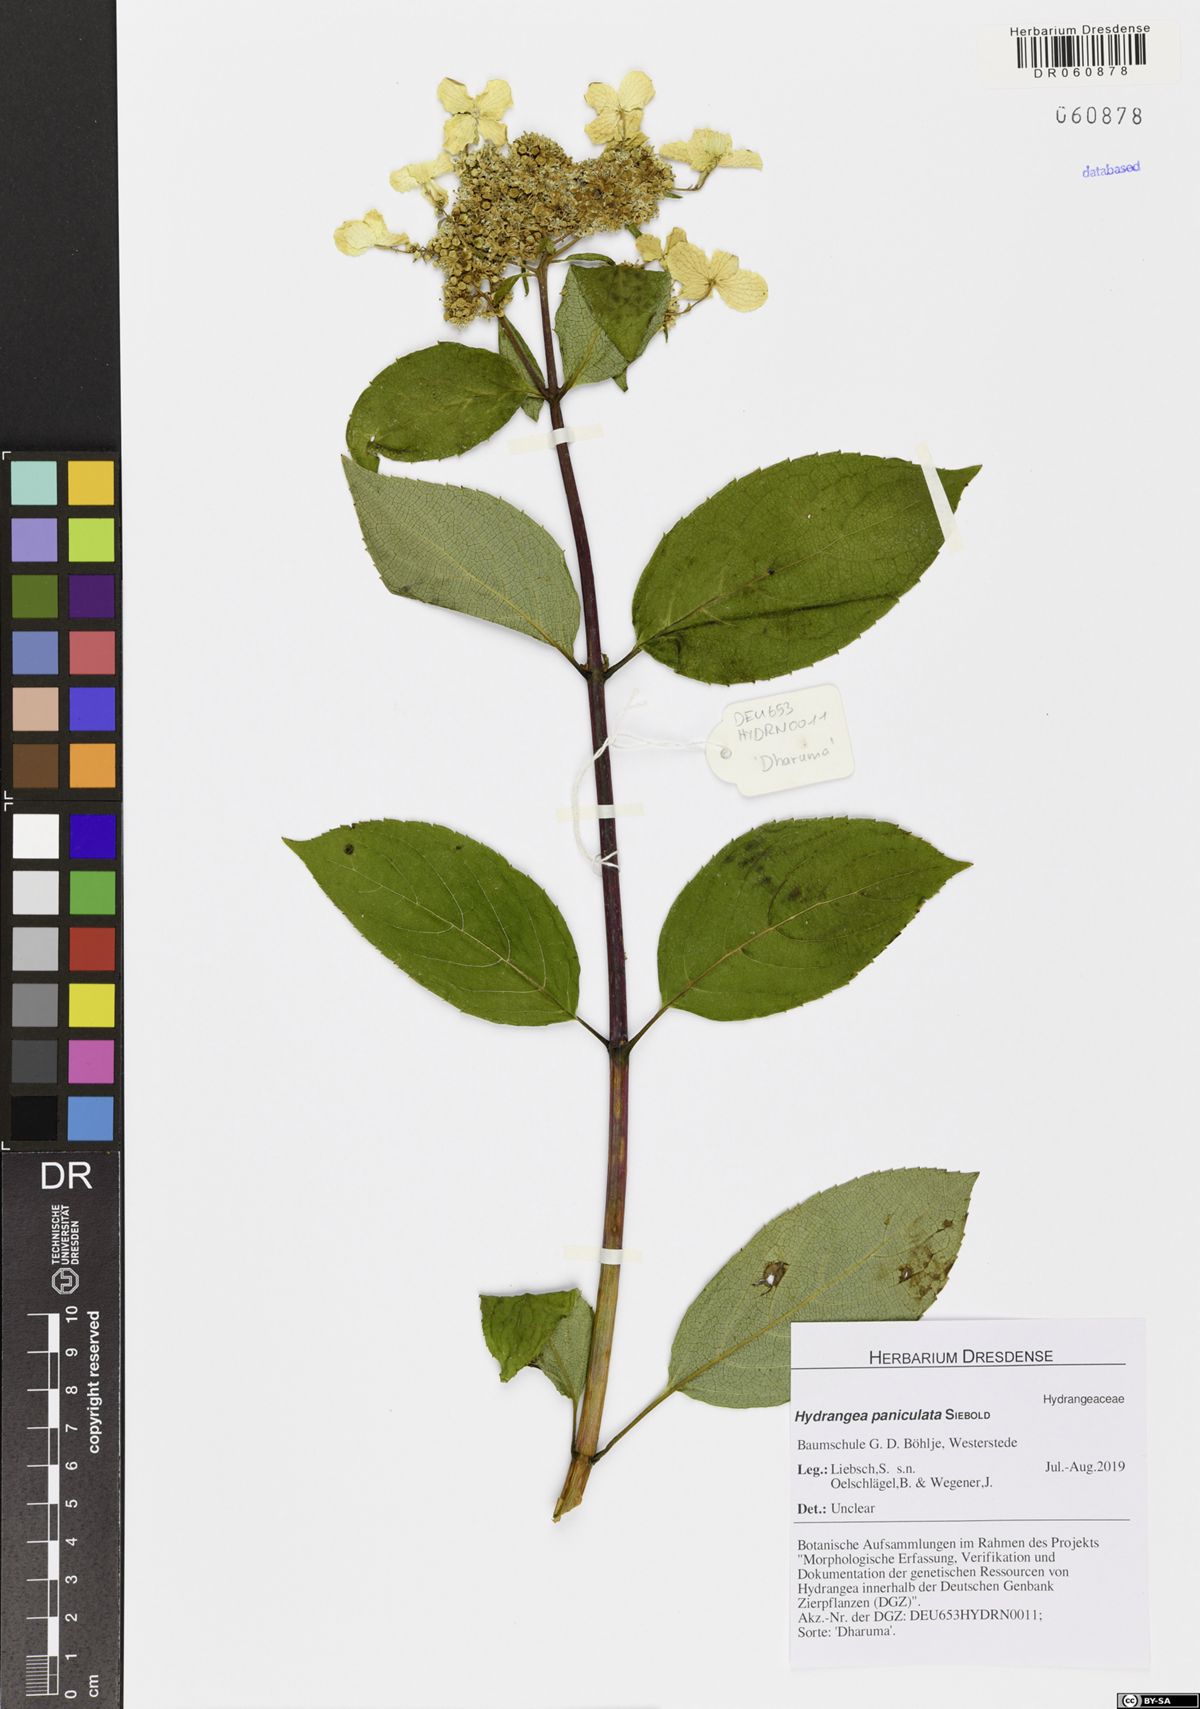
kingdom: Plantae
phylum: Tracheophyta
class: Magnoliopsida
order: Cornales
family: Hydrangeaceae
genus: Hydrangea
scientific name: Hydrangea paniculata
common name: Panicled hydrangea
